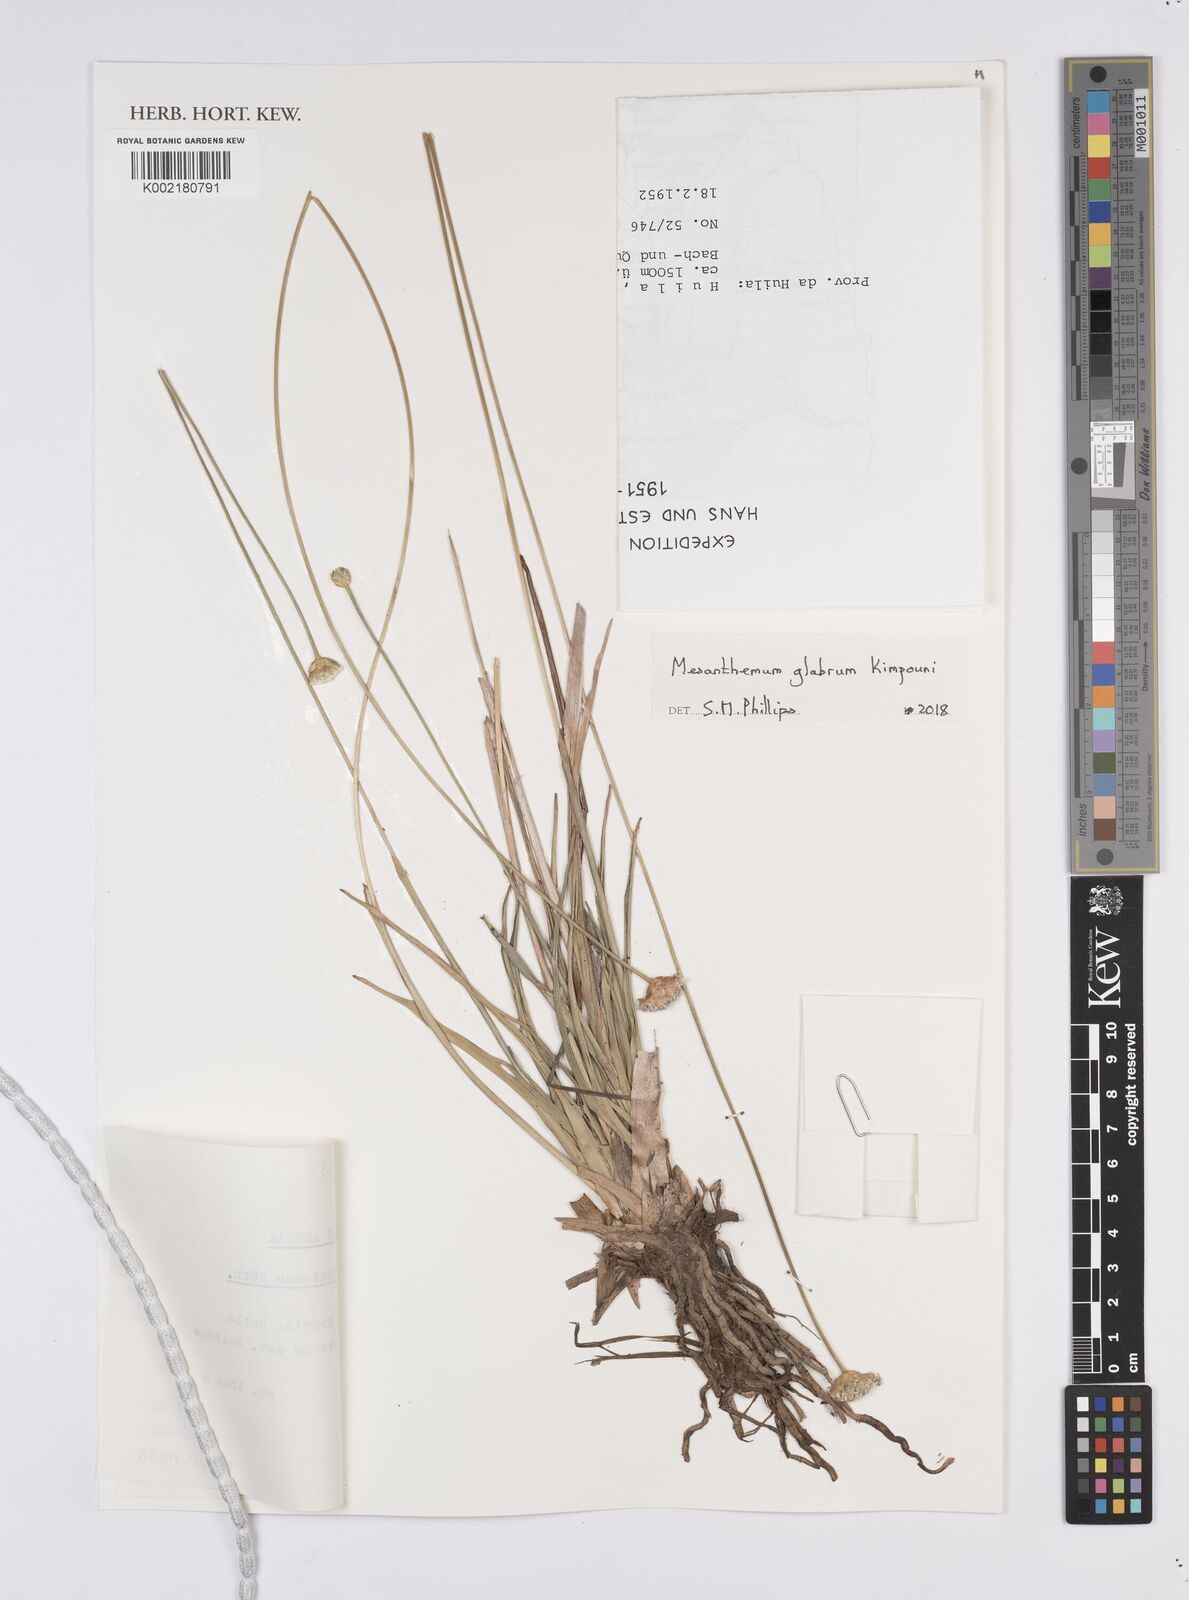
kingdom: Plantae
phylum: Tracheophyta
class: Liliopsida
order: Poales
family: Eriocaulaceae
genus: Mesanthemum
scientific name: Mesanthemum glabrum
